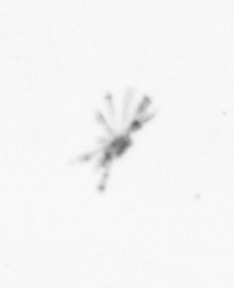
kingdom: Chromista
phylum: Ochrophyta
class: Bacillariophyceae
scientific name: Bacillariophyceae
